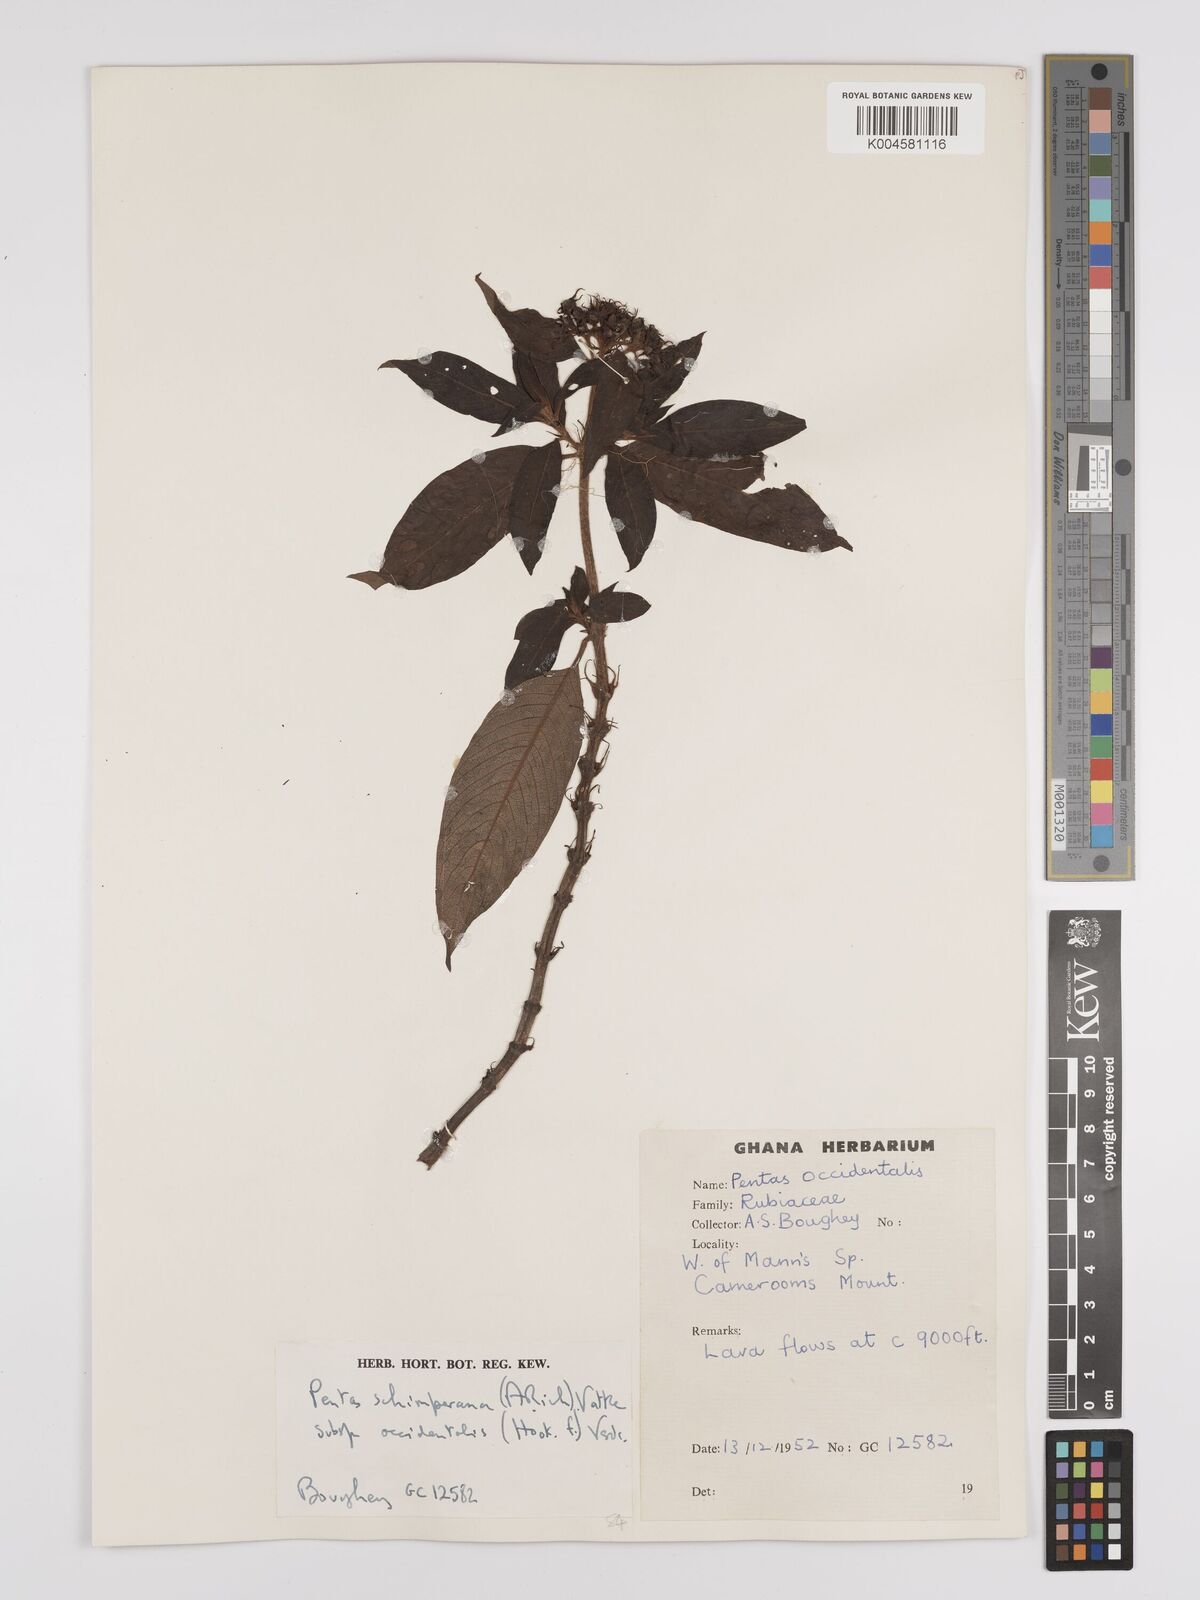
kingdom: Plantae
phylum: Tracheophyta
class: Magnoliopsida
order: Gentianales
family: Rubiaceae
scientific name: Rubiaceae
